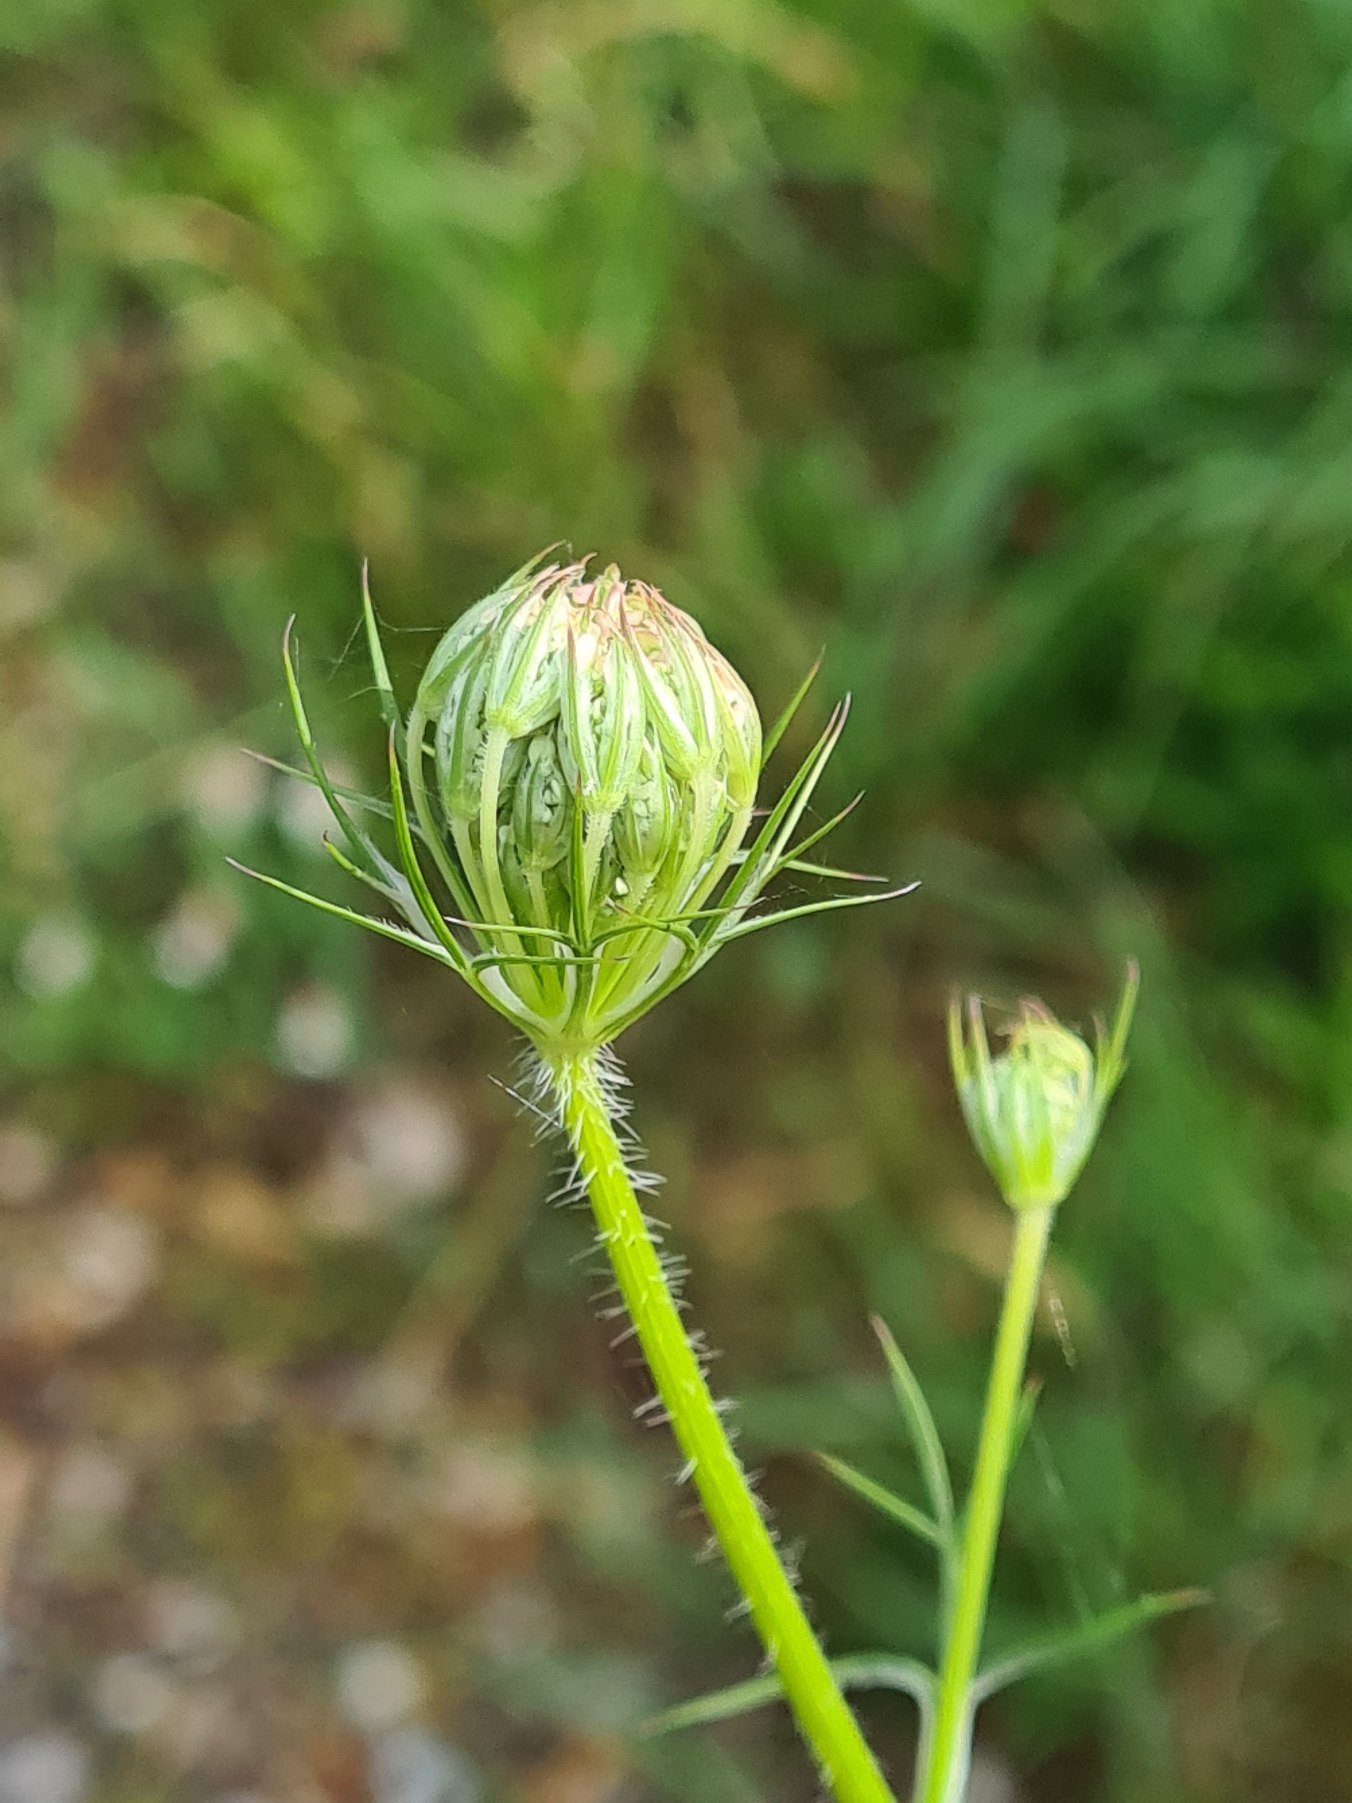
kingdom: Plantae
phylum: Tracheophyta
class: Magnoliopsida
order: Apiales
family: Apiaceae
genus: Daucus
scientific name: Daucus carota
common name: Vild gulerod
